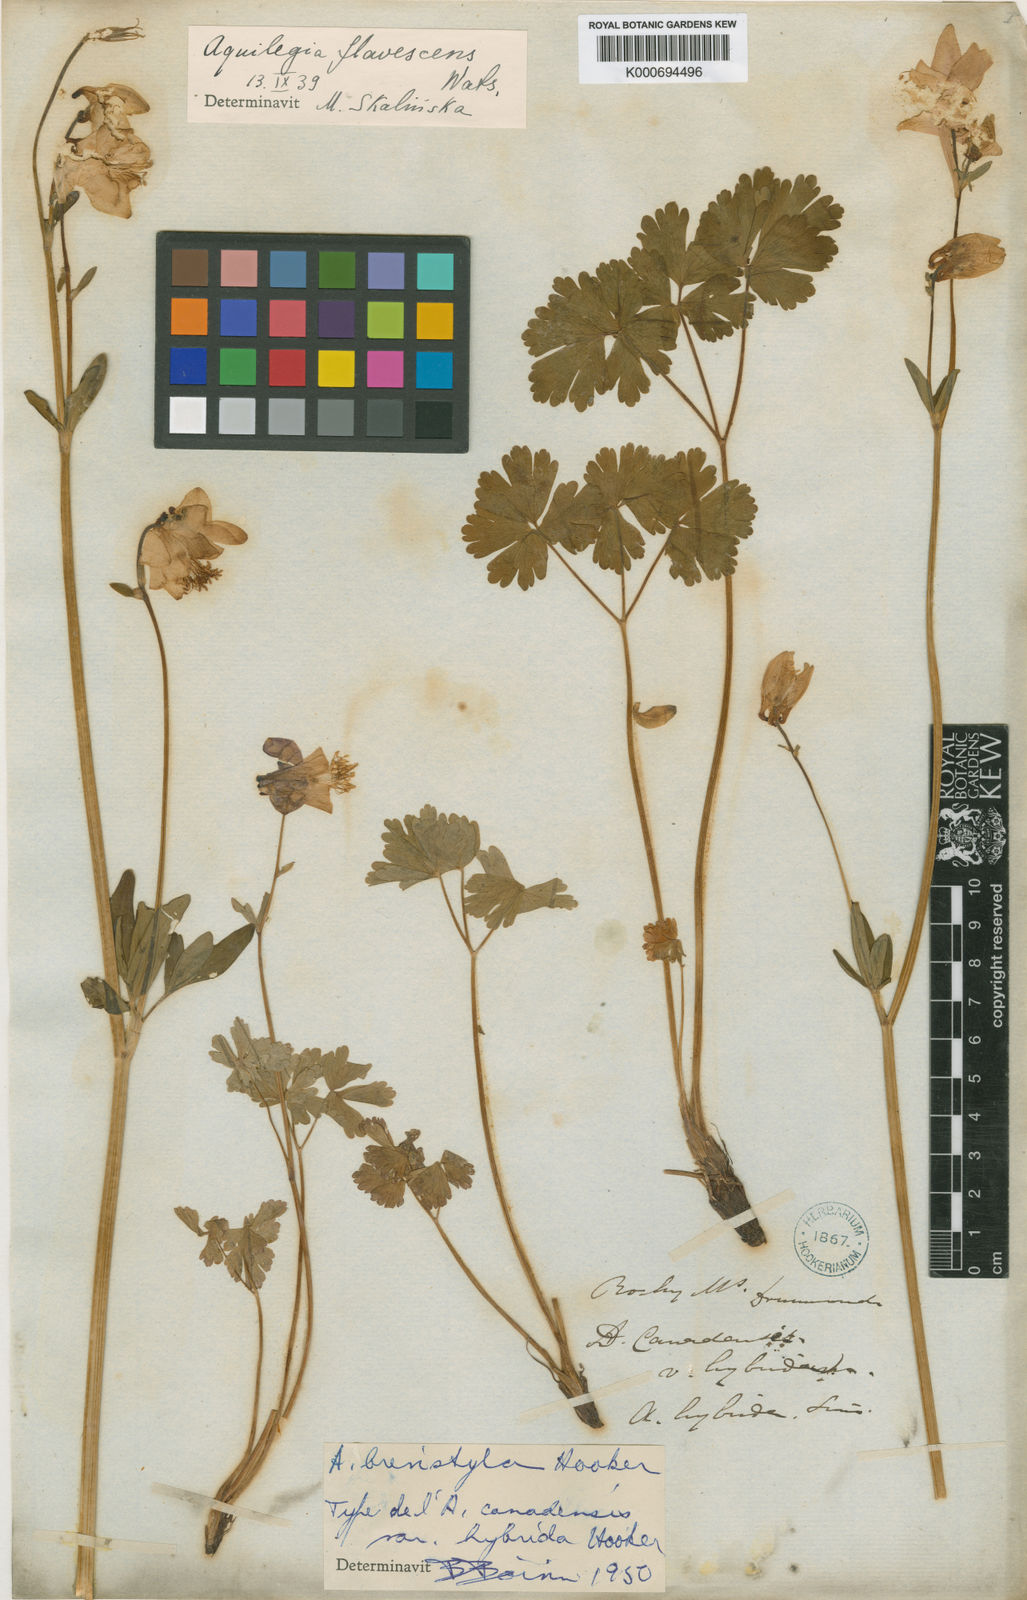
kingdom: Plantae
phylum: Tracheophyta
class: Magnoliopsida
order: Ranunculales
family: Ranunculaceae
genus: Aquilegia
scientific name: Aquilegia canadensis
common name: American columbine
